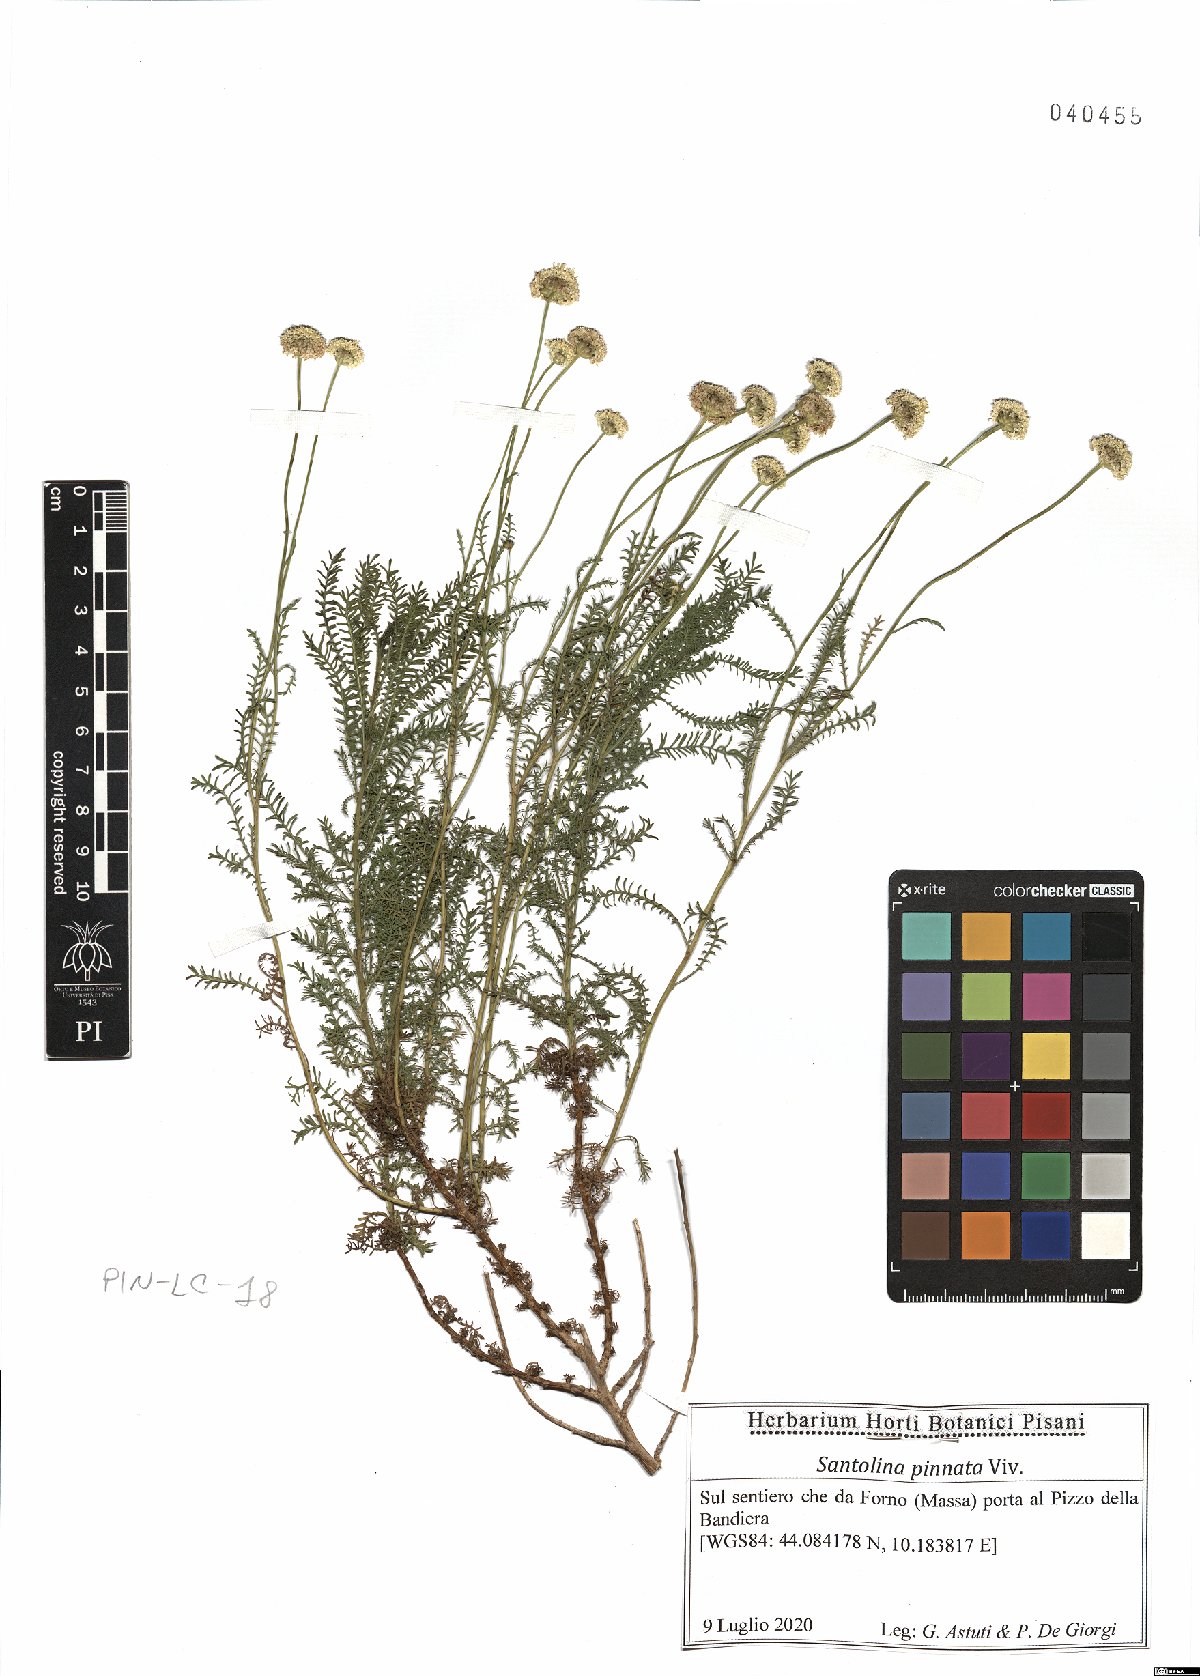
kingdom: Plantae
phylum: Tracheophyta
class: Magnoliopsida
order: Asterales
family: Asteraceae
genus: Santolina
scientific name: Santolina pinnata
